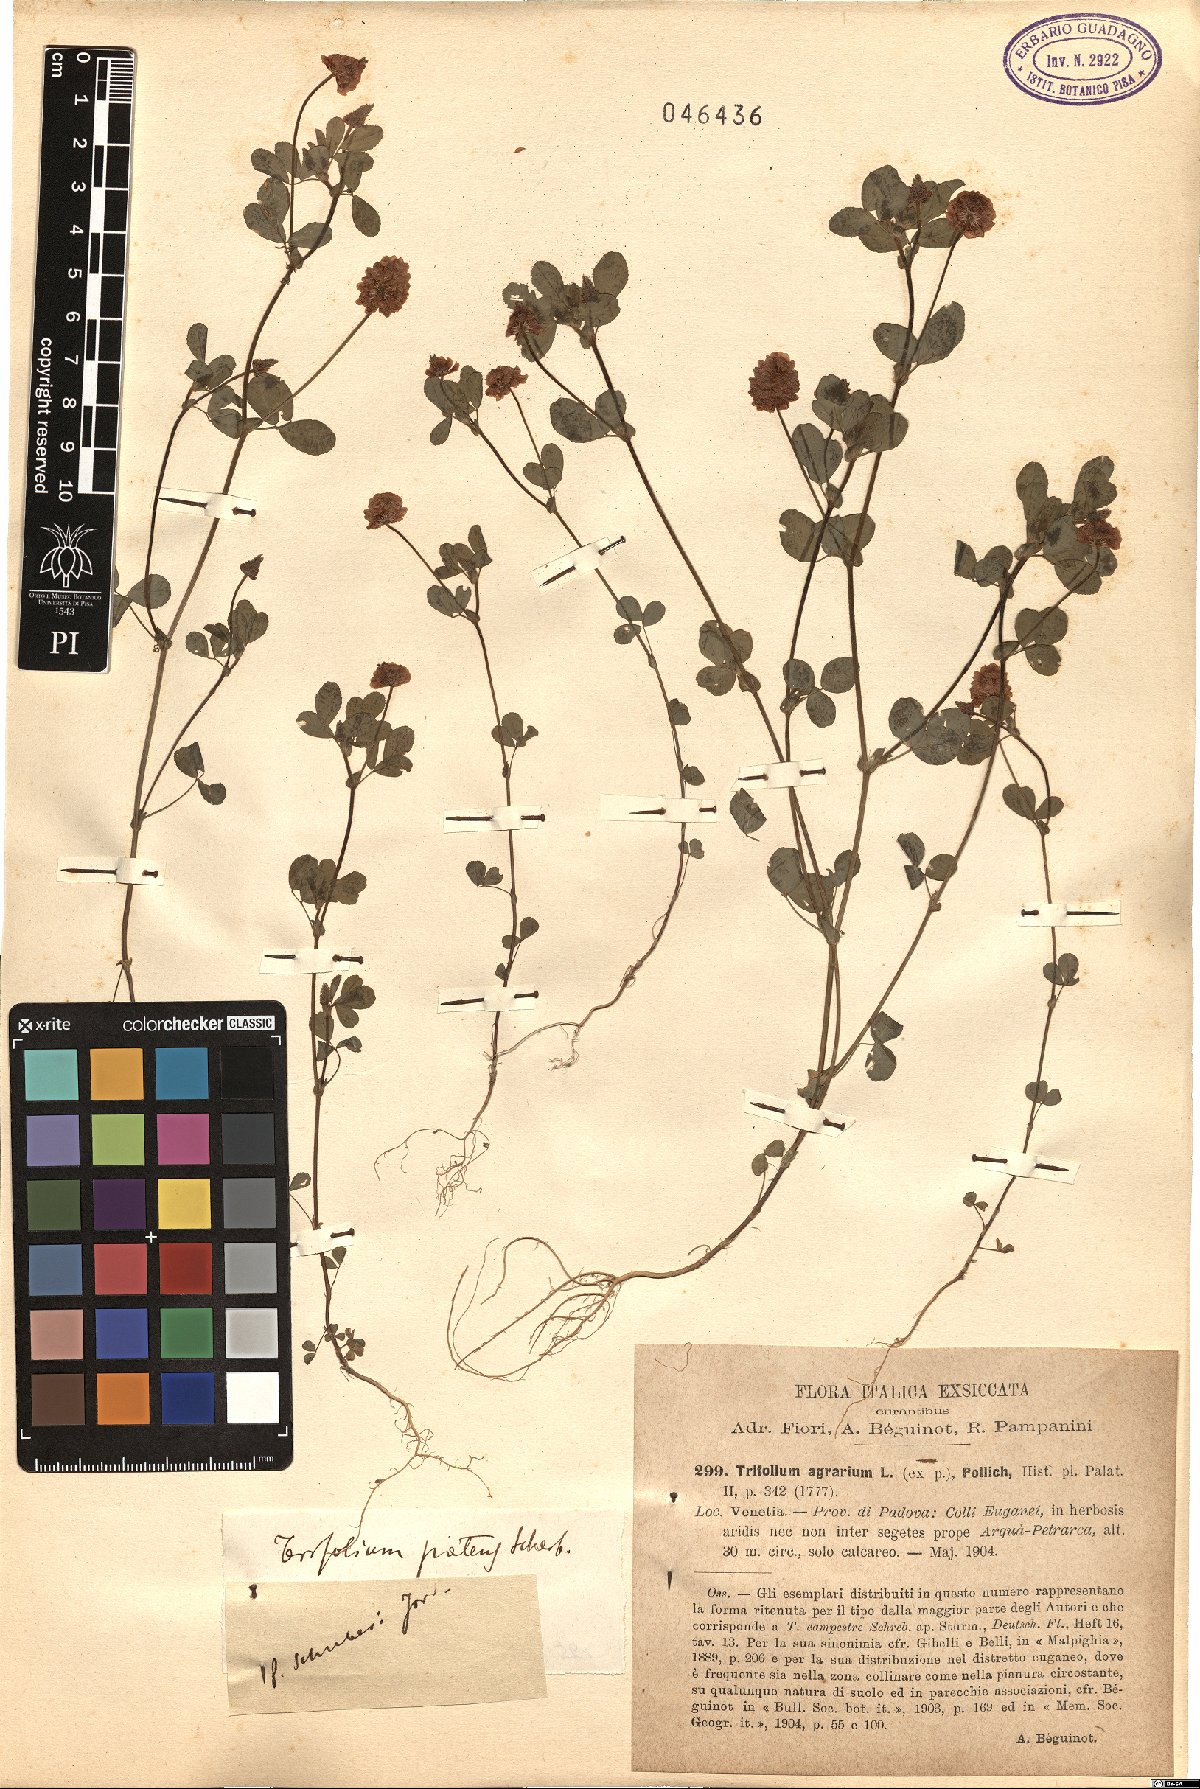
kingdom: Plantae
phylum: Tracheophyta
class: Magnoliopsida
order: Fabales
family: Fabaceae
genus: Trifolium
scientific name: Trifolium patens
